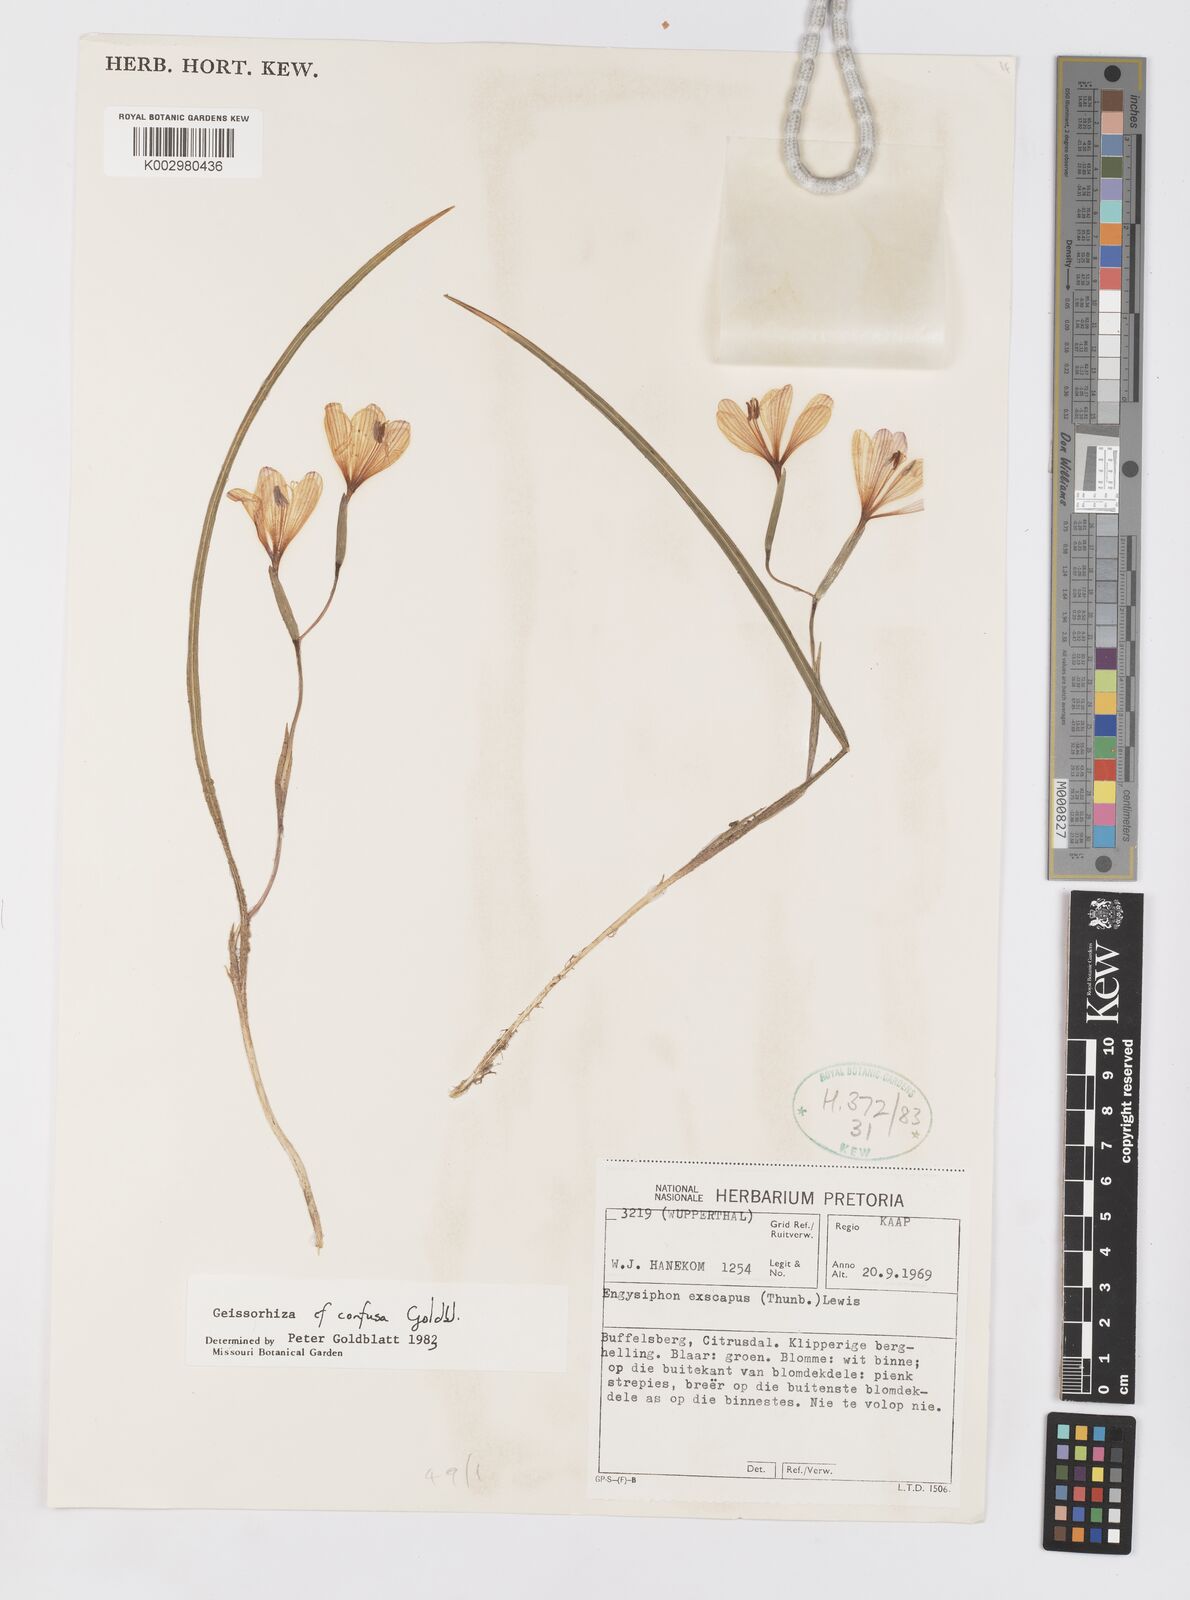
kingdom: Plantae
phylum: Tracheophyta
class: Liliopsida
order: Asparagales
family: Iridaceae
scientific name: Iridaceae
